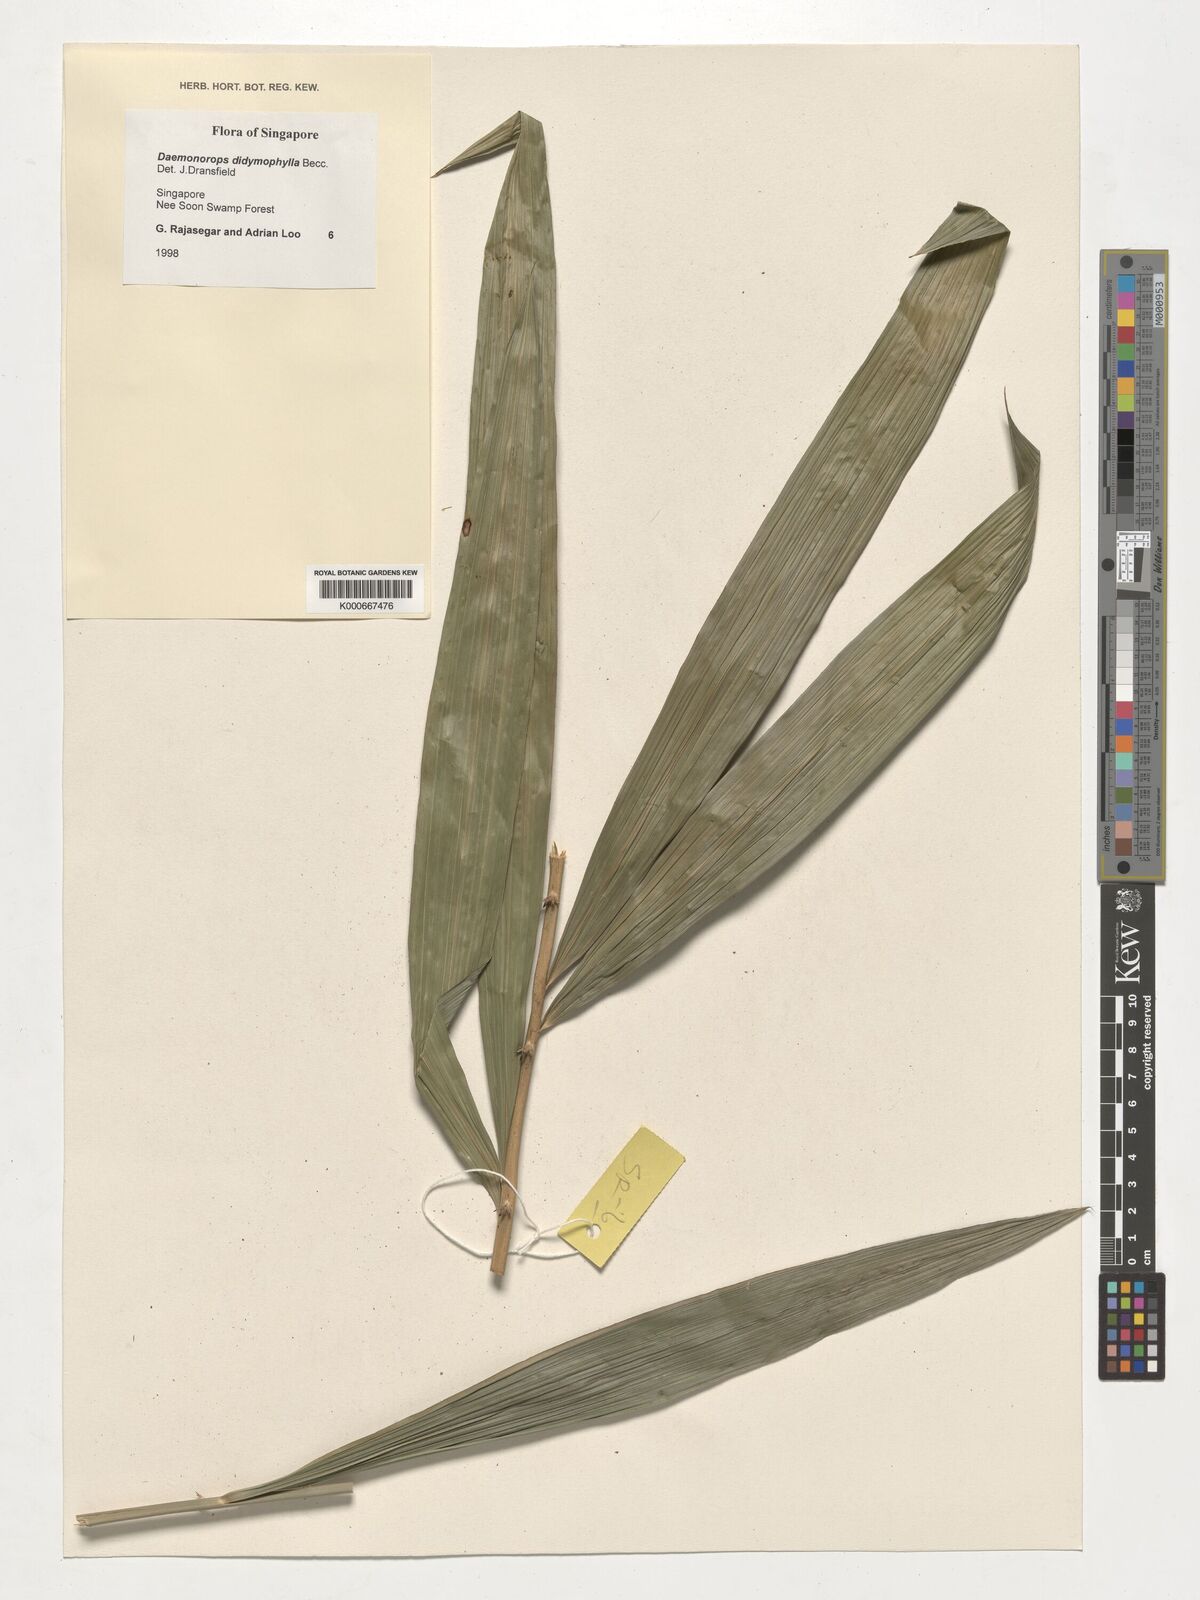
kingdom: Plantae
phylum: Tracheophyta
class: Liliopsida
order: Arecales
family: Arecaceae
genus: Calamus
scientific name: Calamus gracilipes
